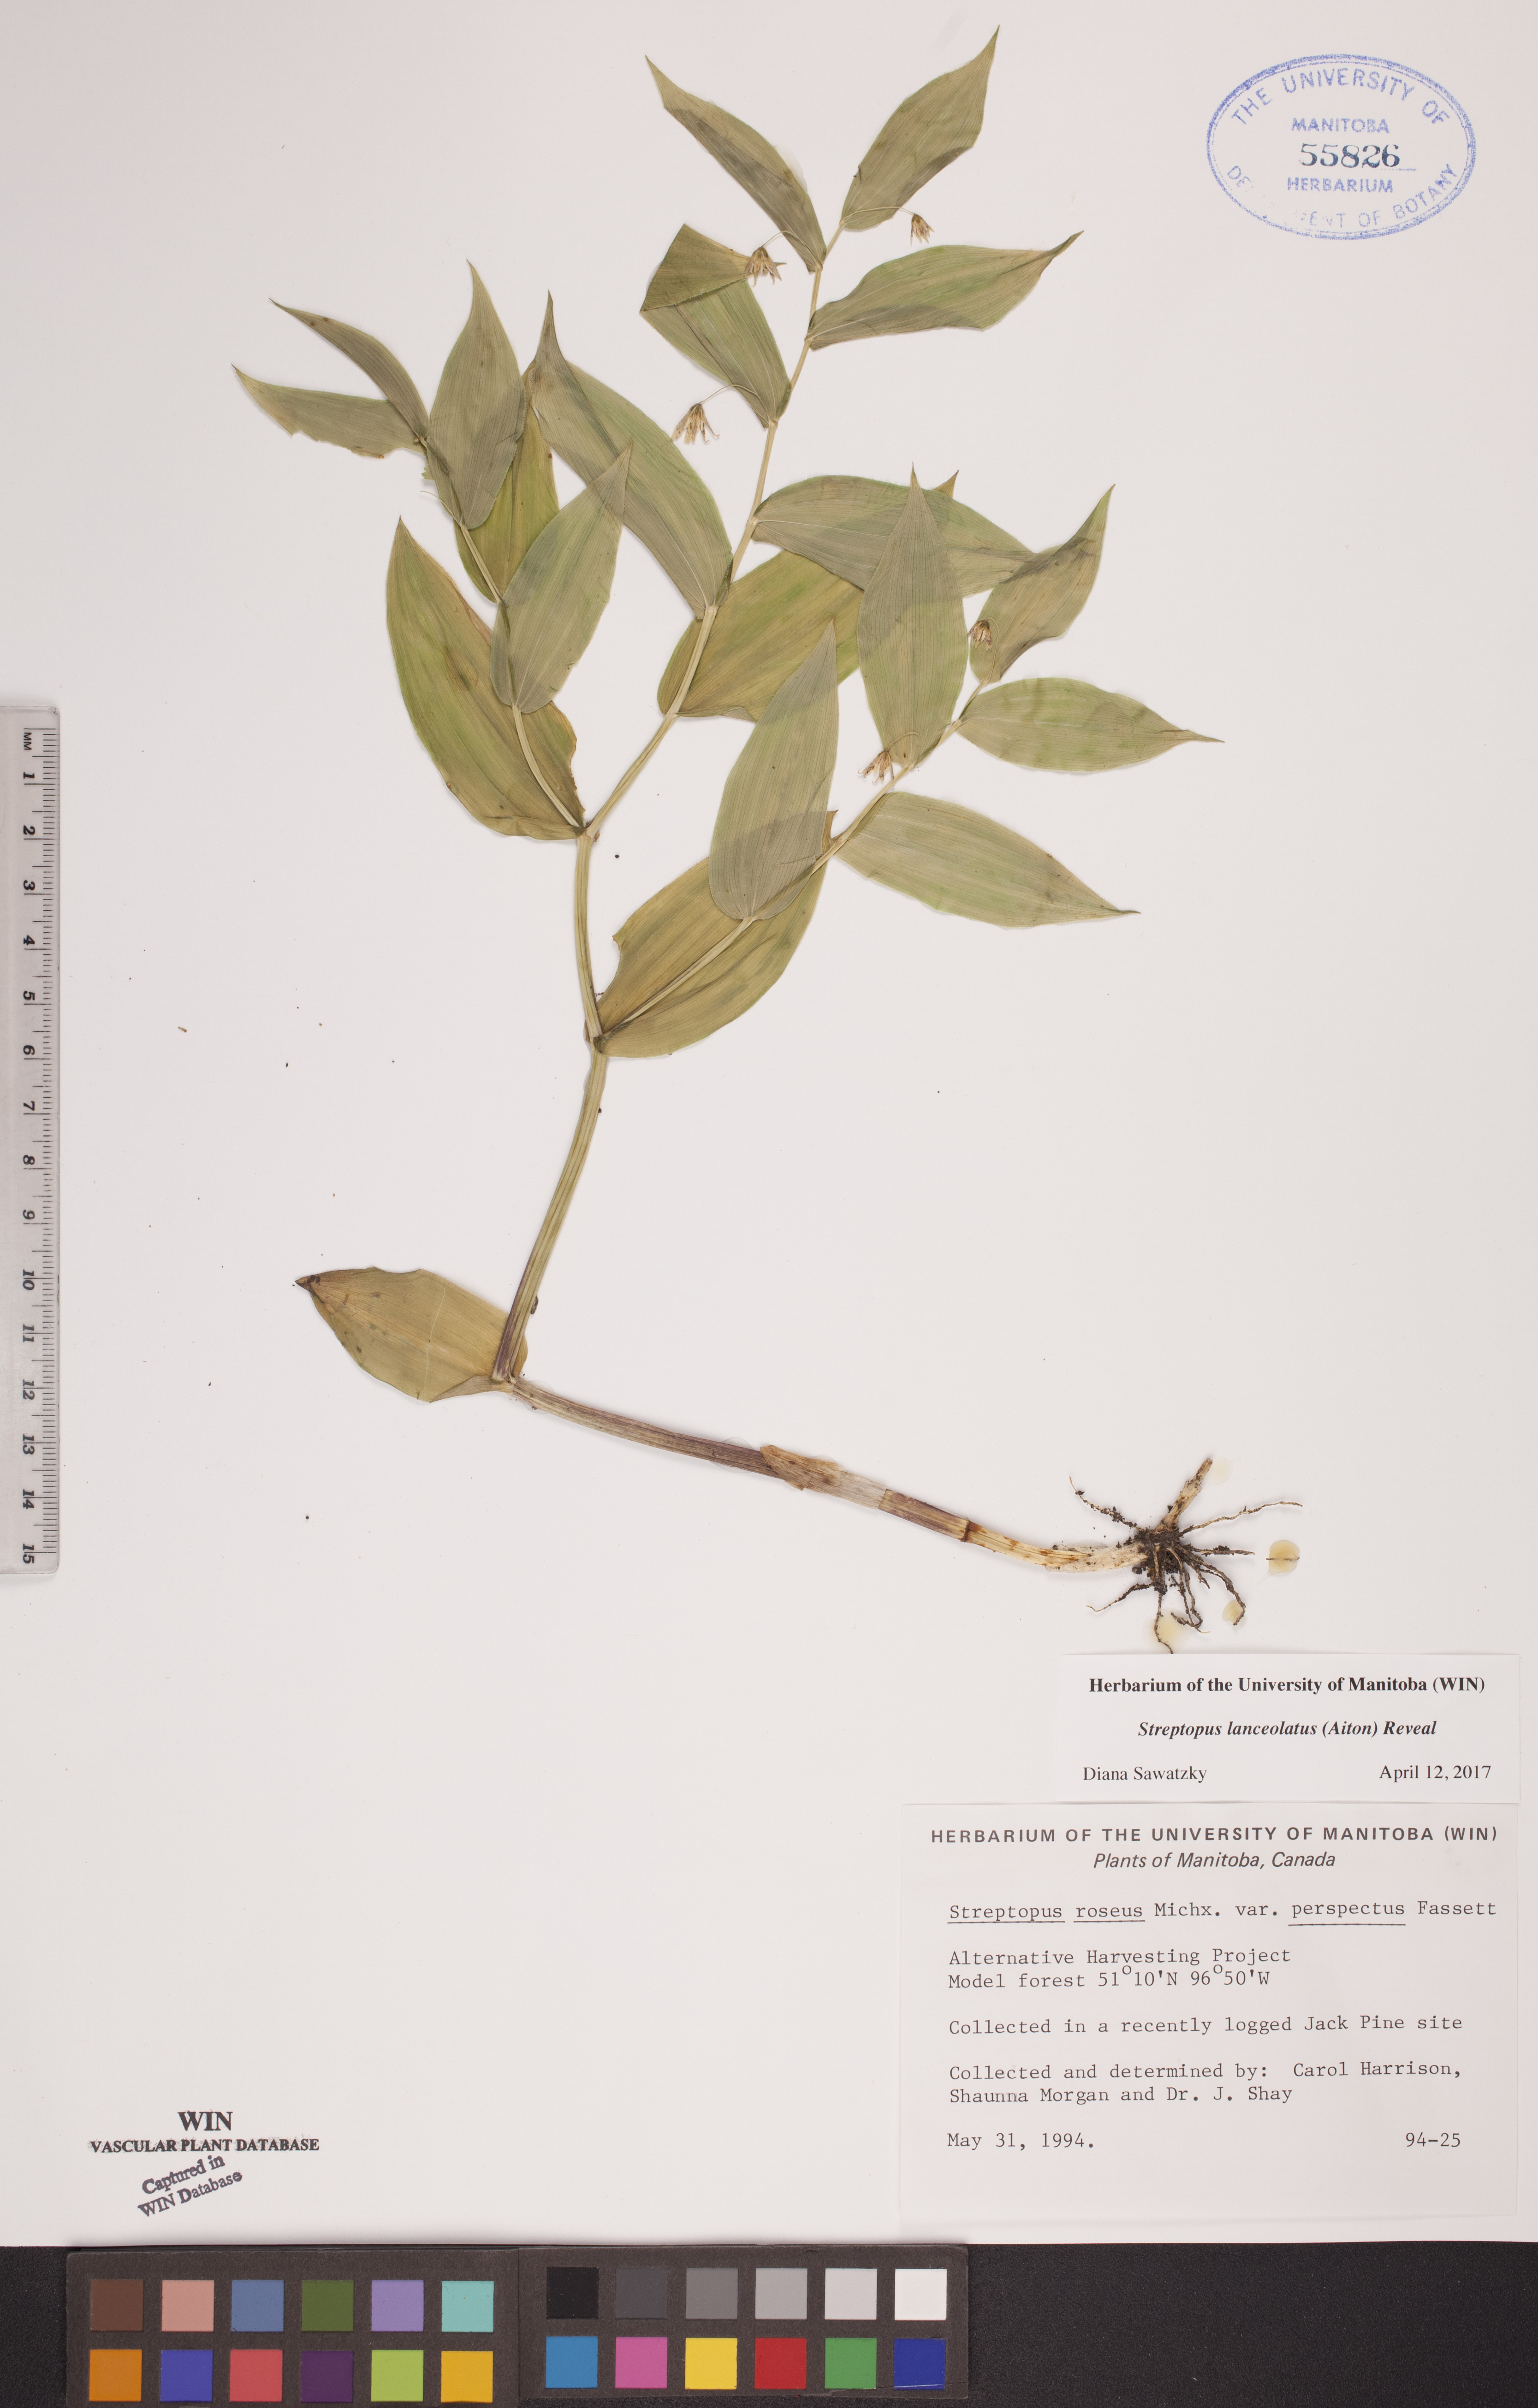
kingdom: Plantae
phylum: Tracheophyta
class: Liliopsida
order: Liliales
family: Liliaceae
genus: Streptopus
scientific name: Streptopus lanceolatus
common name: Rose mandarin
